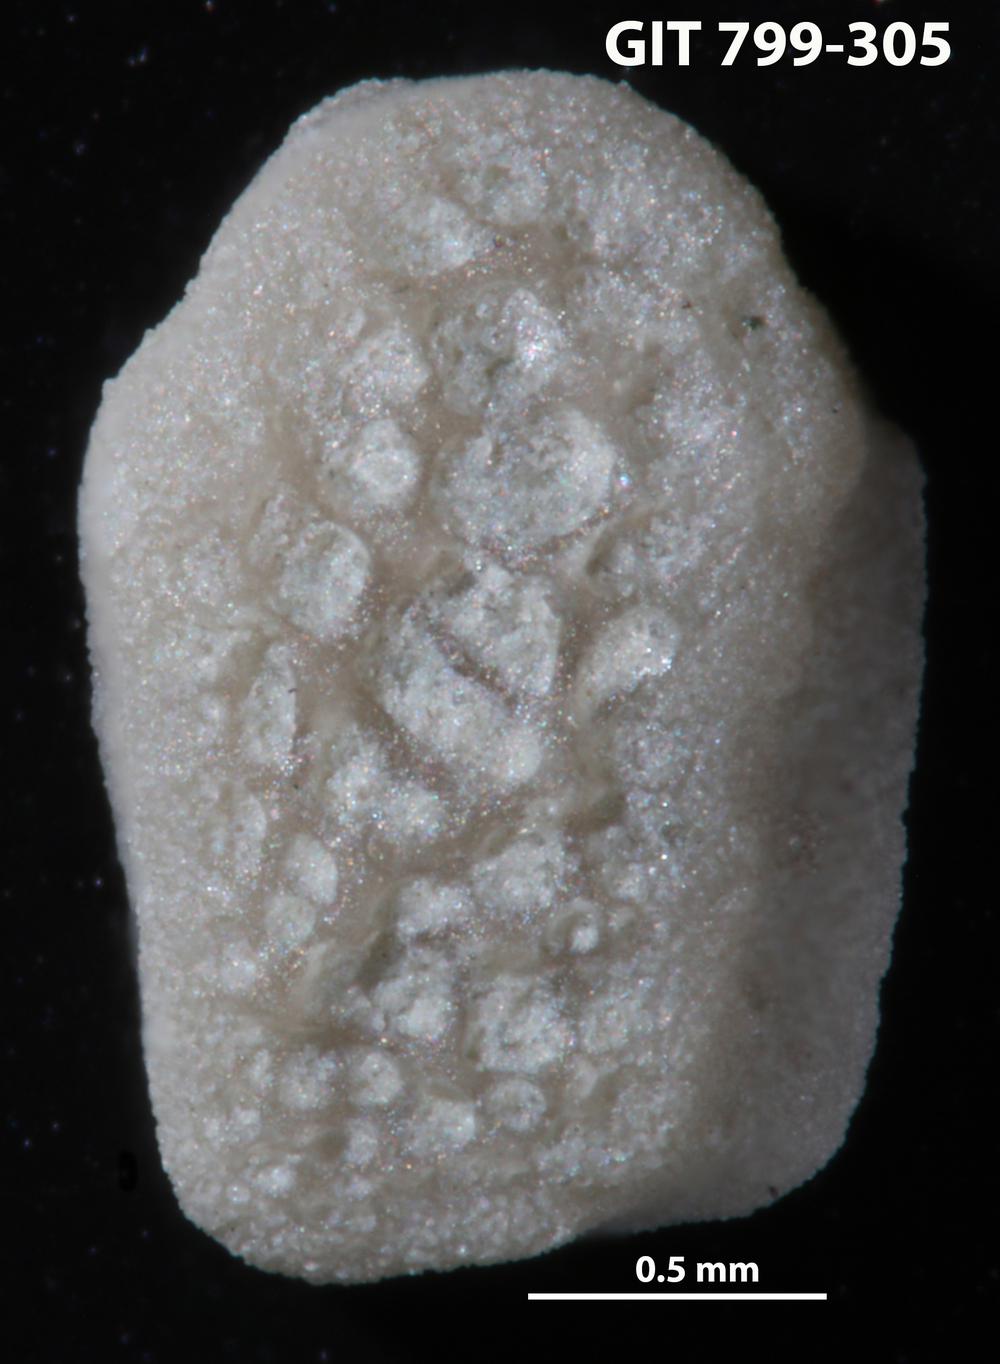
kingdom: Animalia
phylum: Echinodermata
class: Echinoidea
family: Lepidocentridae
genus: Aptilechinus
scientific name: Aptilechinus
